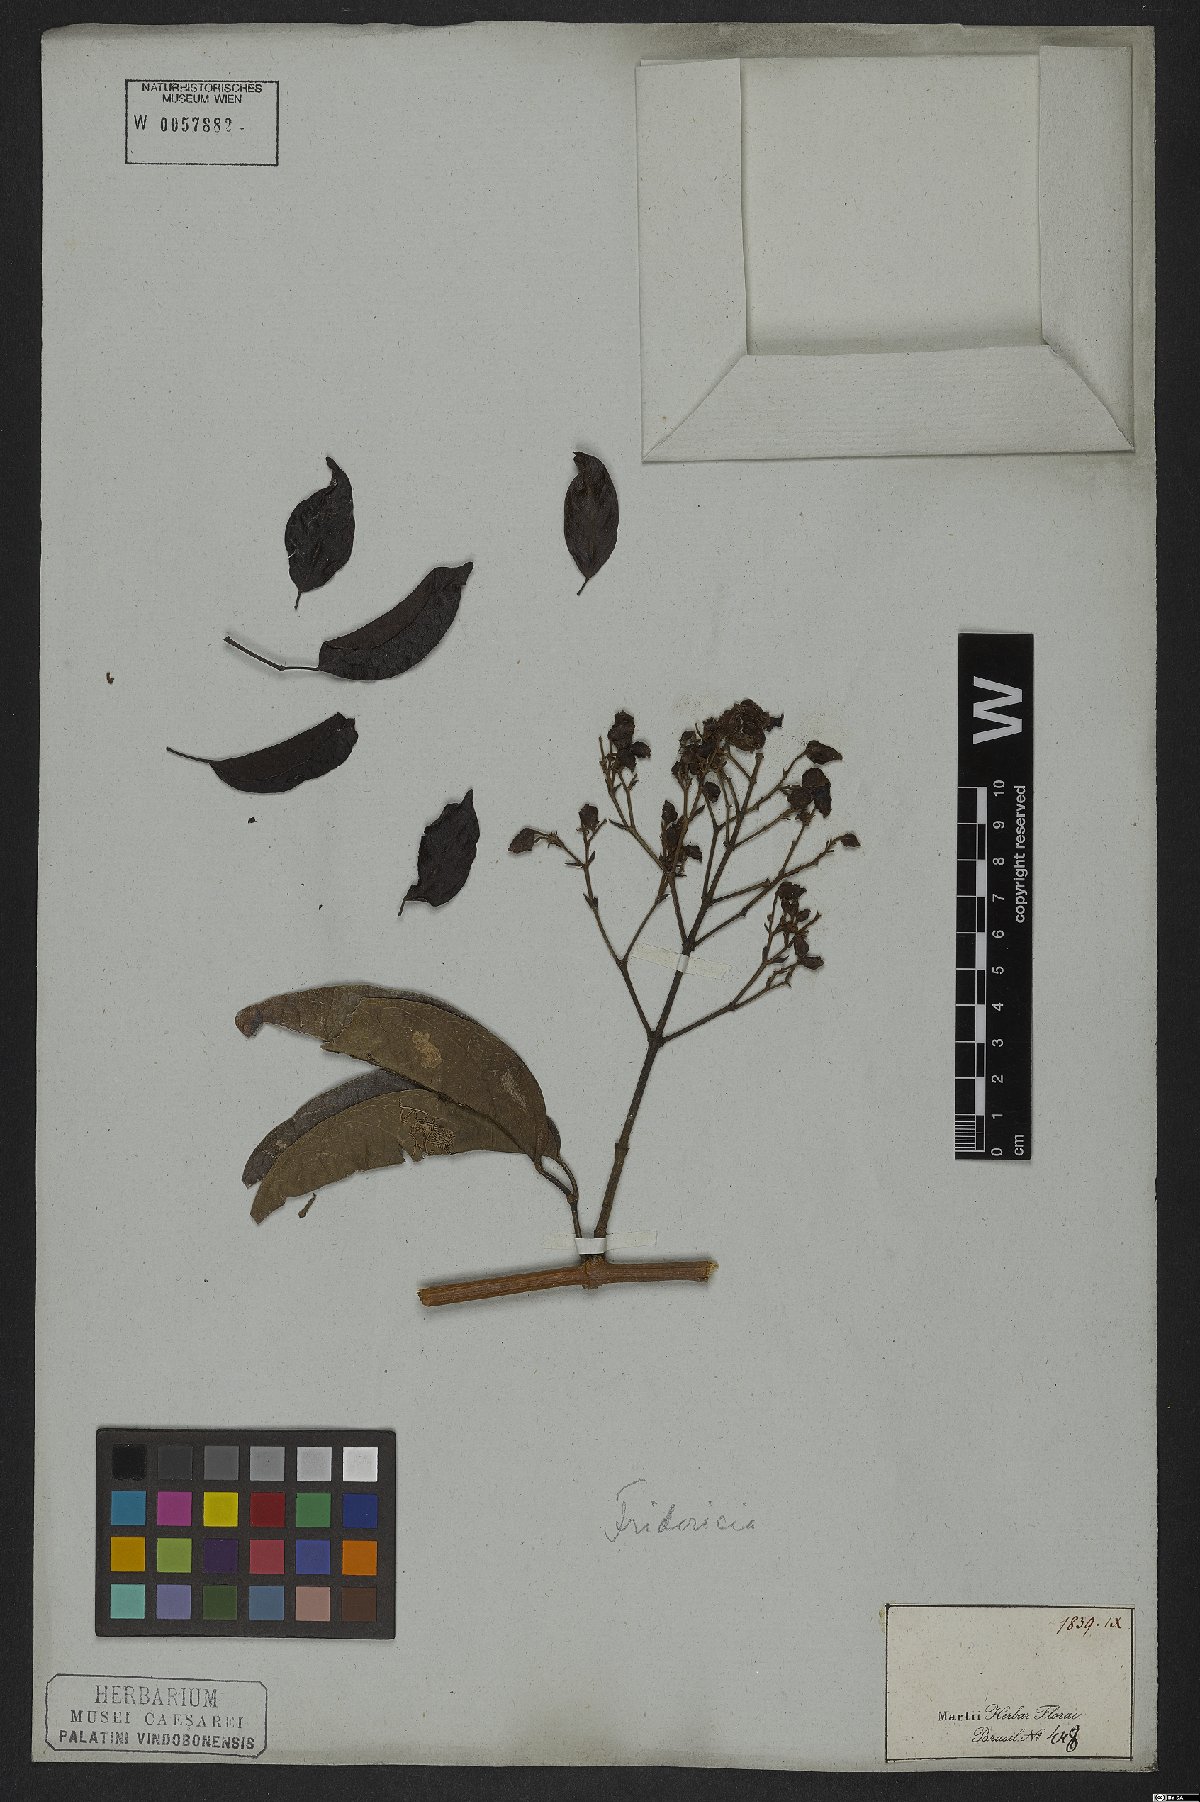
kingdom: Plantae
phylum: Tracheophyta
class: Magnoliopsida
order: Lamiales
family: Bignoniaceae
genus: Fridericia
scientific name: Fridericia speciosa
